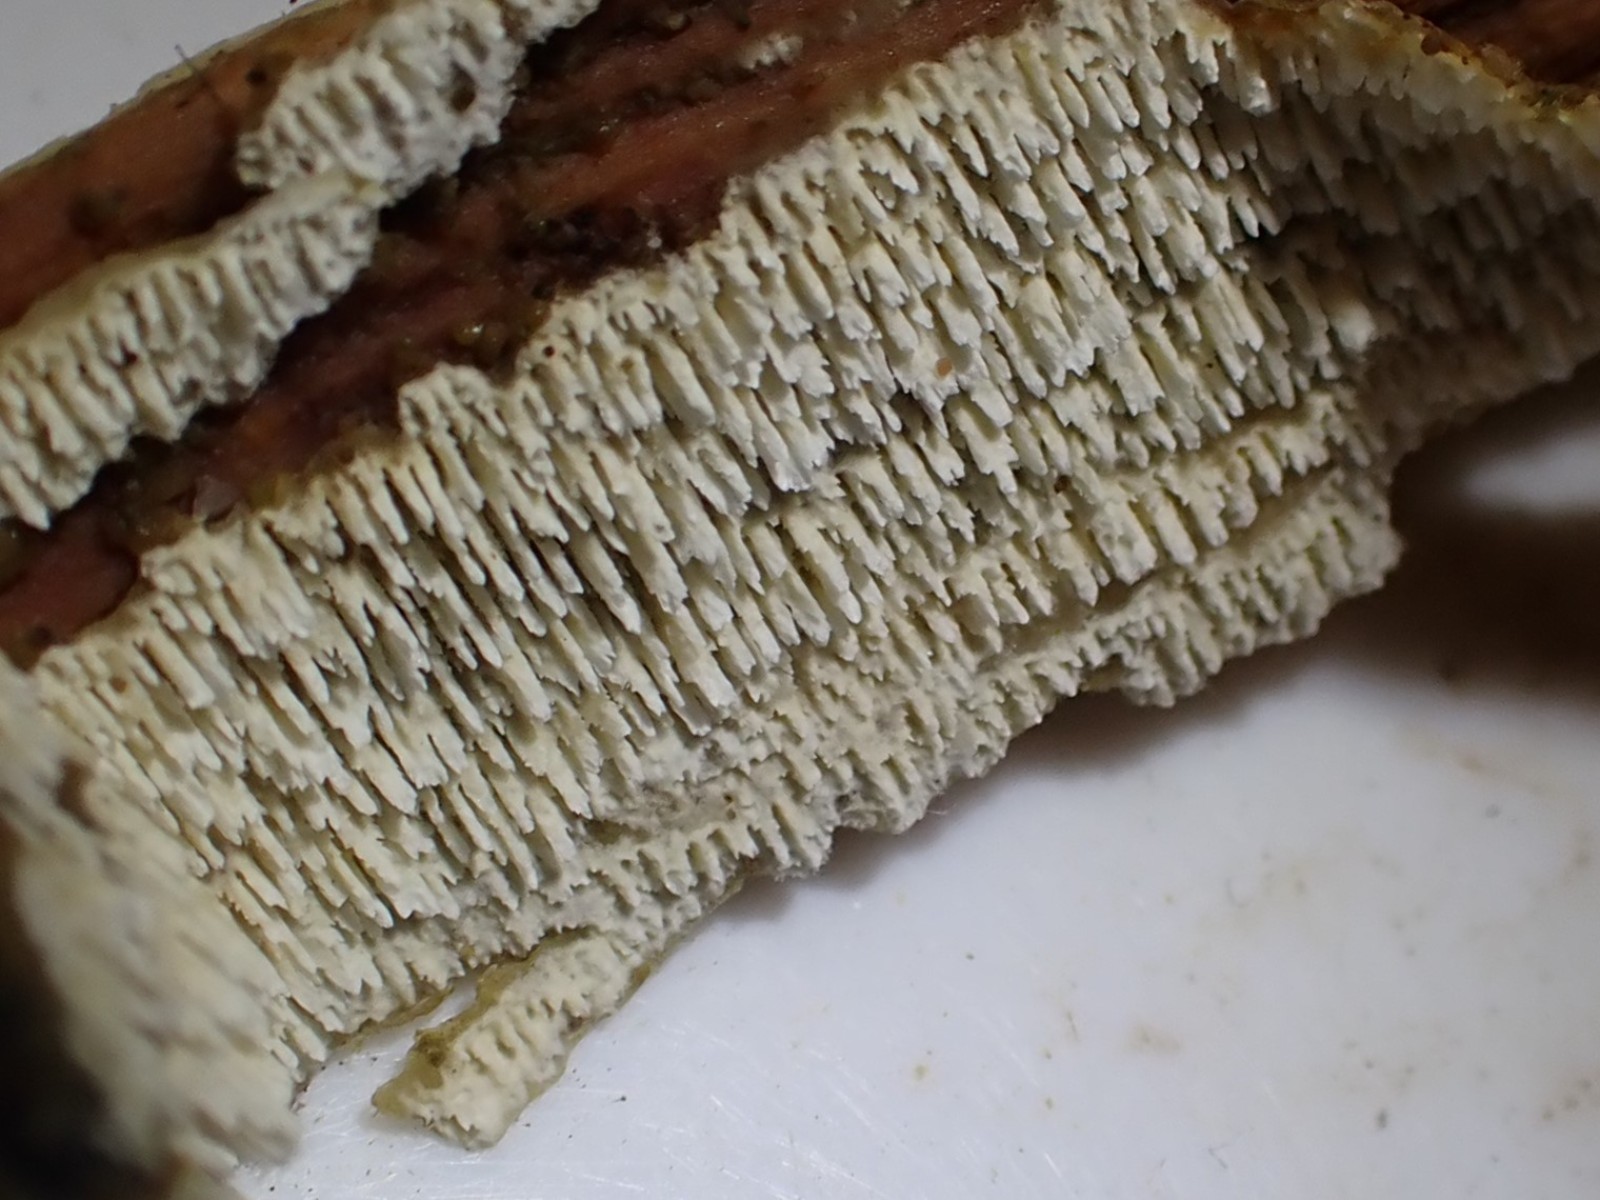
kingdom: Fungi
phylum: Basidiomycota
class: Agaricomycetes
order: Hymenochaetales
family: Schizoporaceae
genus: Schizopora
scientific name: Schizopora paradoxa
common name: hvid tandsvamp
